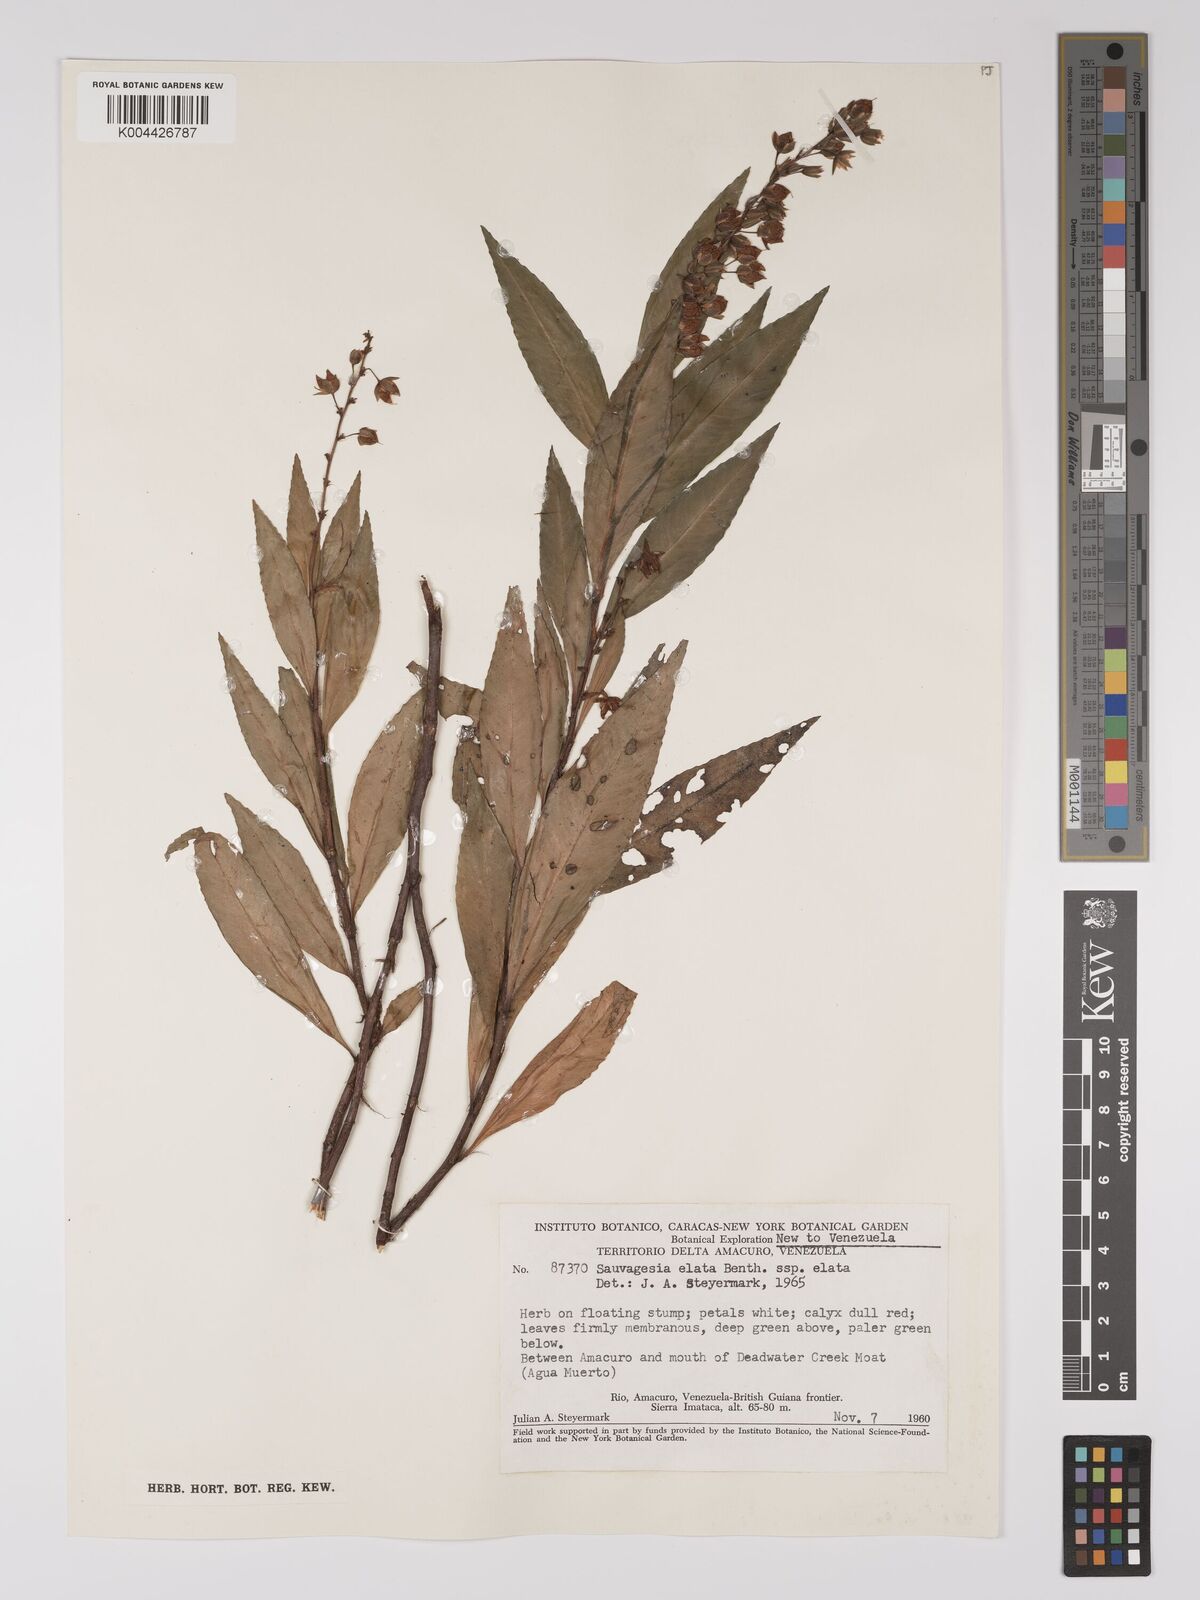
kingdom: Plantae
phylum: Tracheophyta
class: Magnoliopsida
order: Malpighiales
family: Ochnaceae
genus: Sauvagesia
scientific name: Sauvagesia elata
